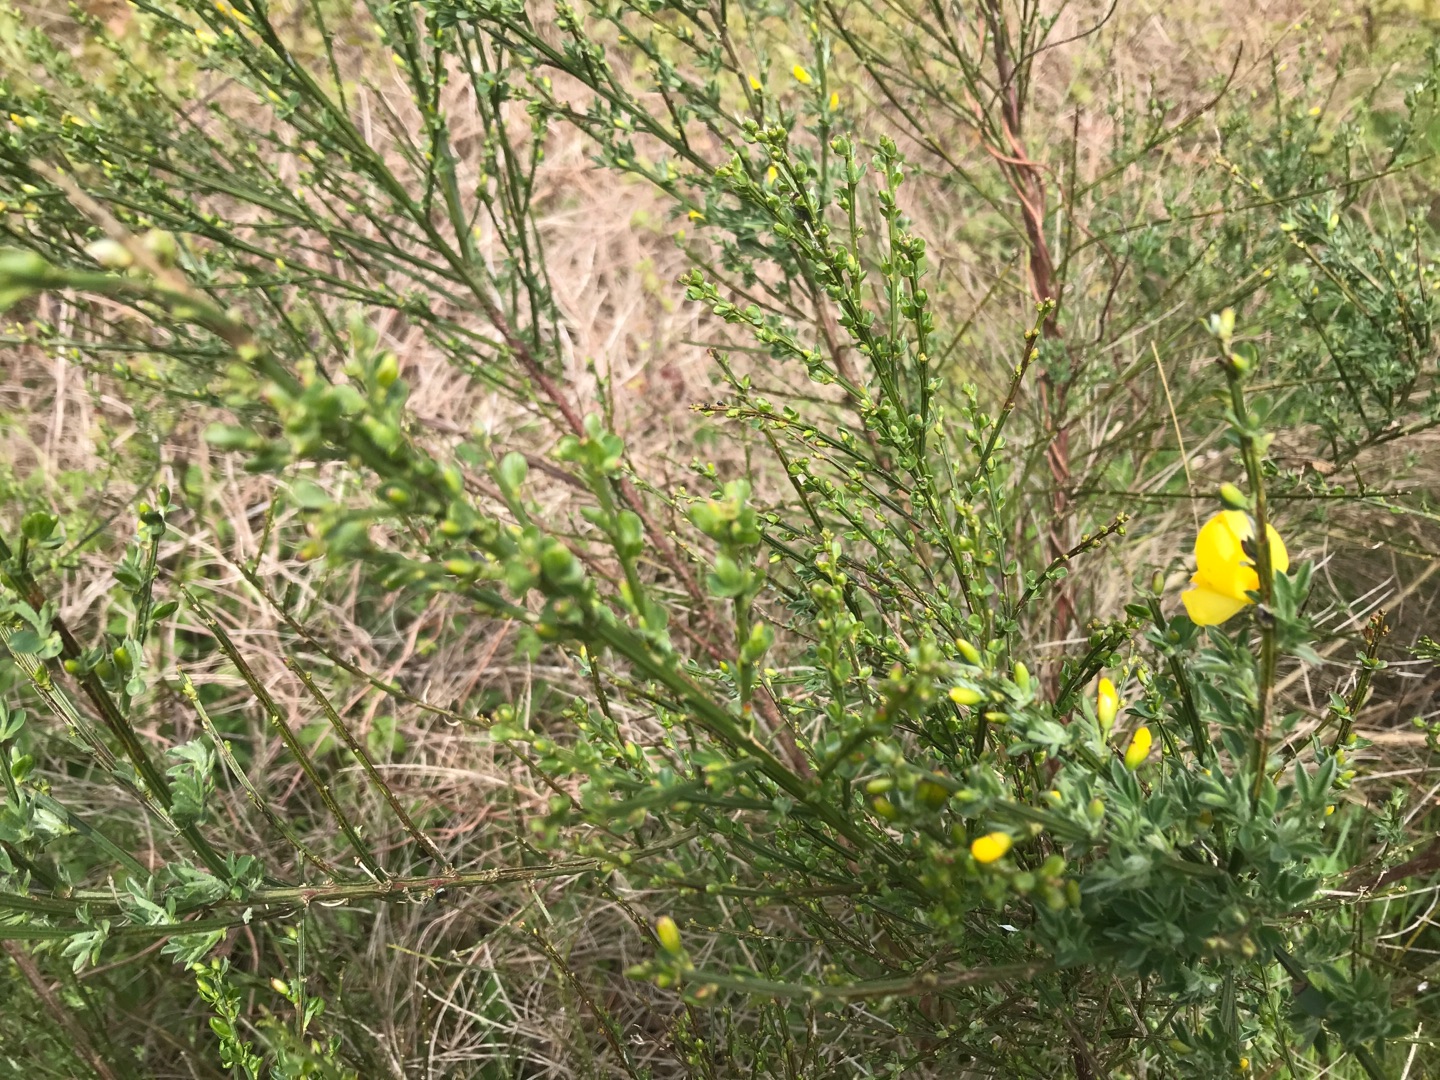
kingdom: Plantae
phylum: Tracheophyta
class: Magnoliopsida
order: Fabales
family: Fabaceae
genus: Cytisus
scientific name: Cytisus scoparius
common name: Almindelig gyvel
